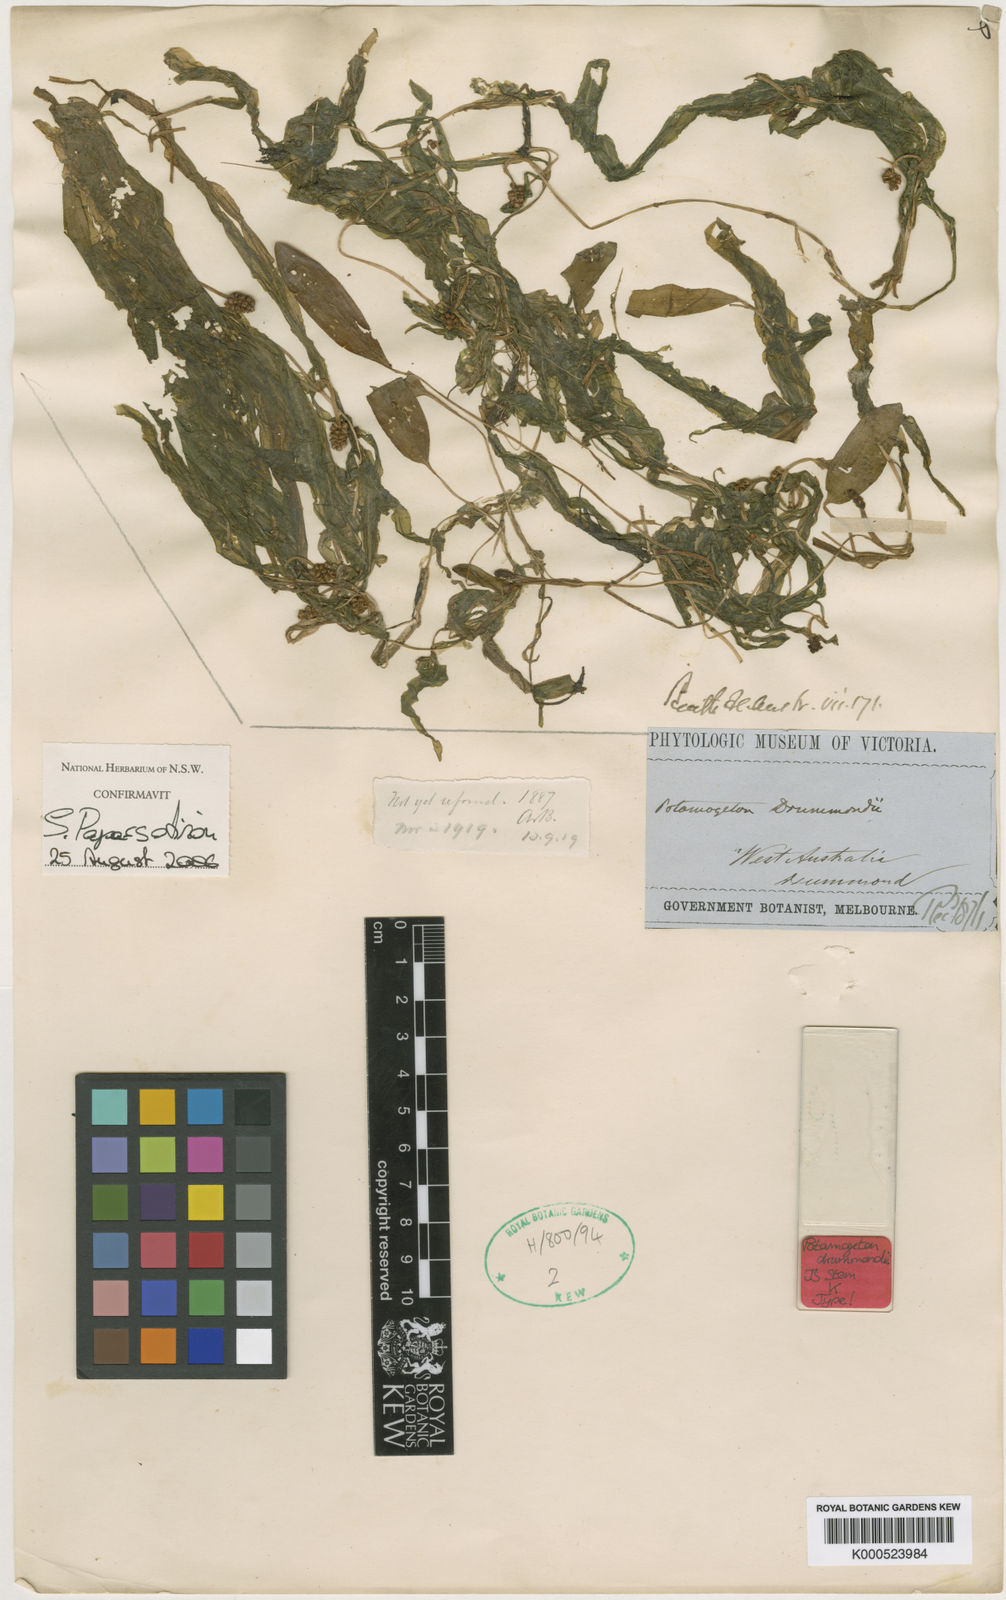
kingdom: Plantae
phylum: Tracheophyta
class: Liliopsida
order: Alismatales
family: Potamogetonaceae
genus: Potamogeton
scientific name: Potamogeton drummondii
